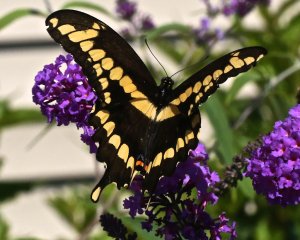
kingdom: Animalia
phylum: Arthropoda
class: Insecta
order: Lepidoptera
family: Papilionidae
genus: Papilio
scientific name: Papilio cresphontes
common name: Eastern Giant Swallowtail
